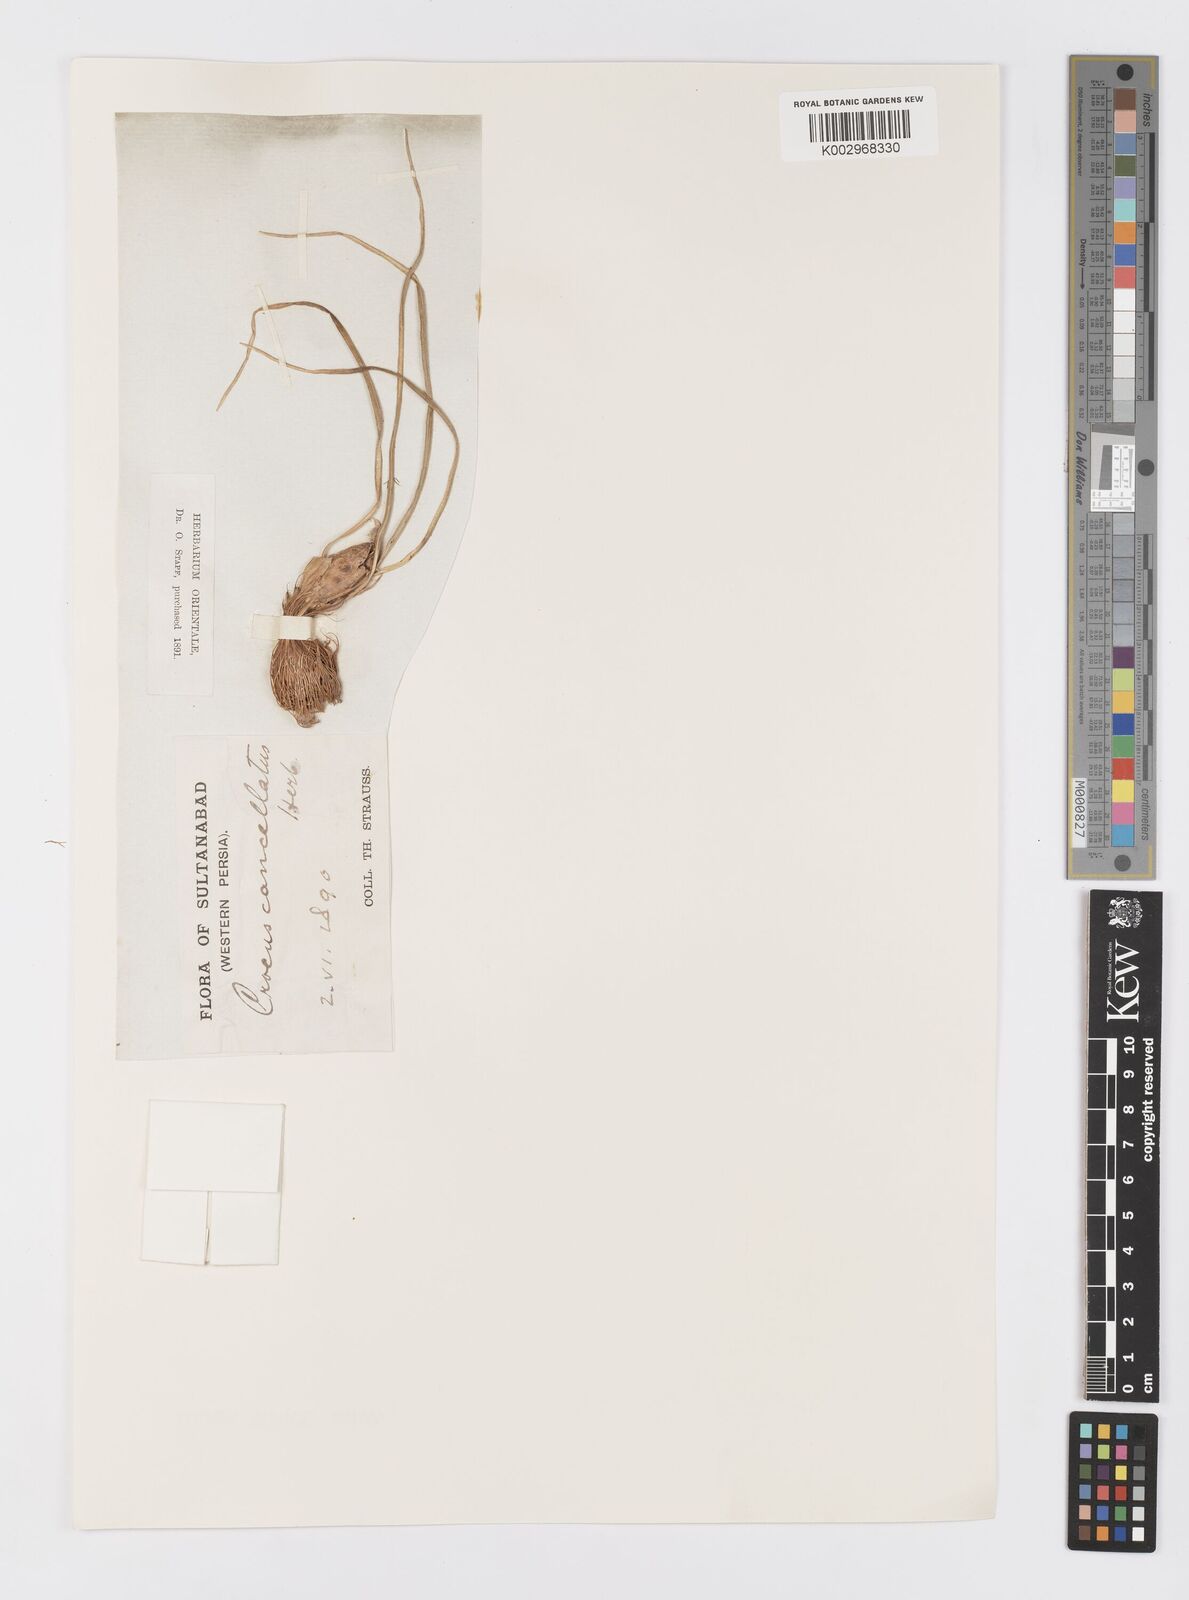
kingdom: Plantae
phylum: Tracheophyta
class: Liliopsida
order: Asparagales
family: Iridaceae
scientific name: Iridaceae
